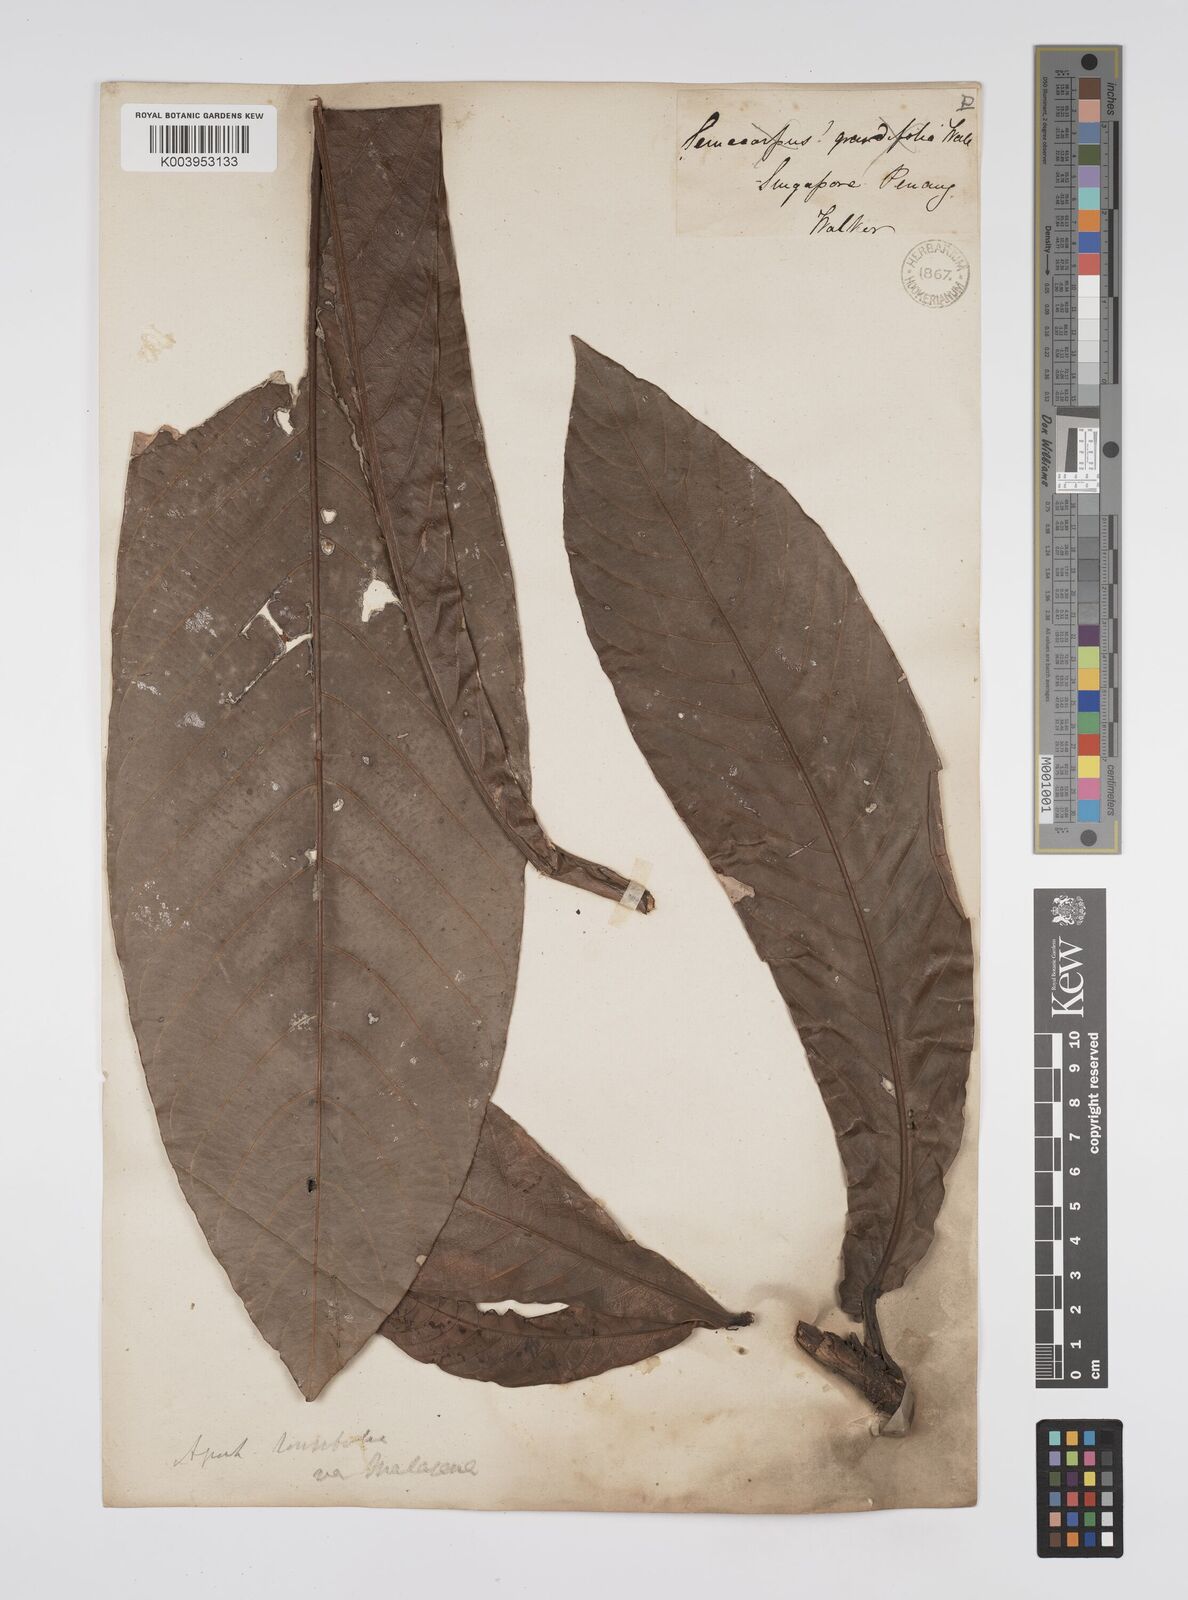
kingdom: Plantae
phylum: Tracheophyta
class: Magnoliopsida
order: Malpighiales
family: Euphorbiaceae
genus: Agrostistachys
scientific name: Agrostistachys sessilifolia
